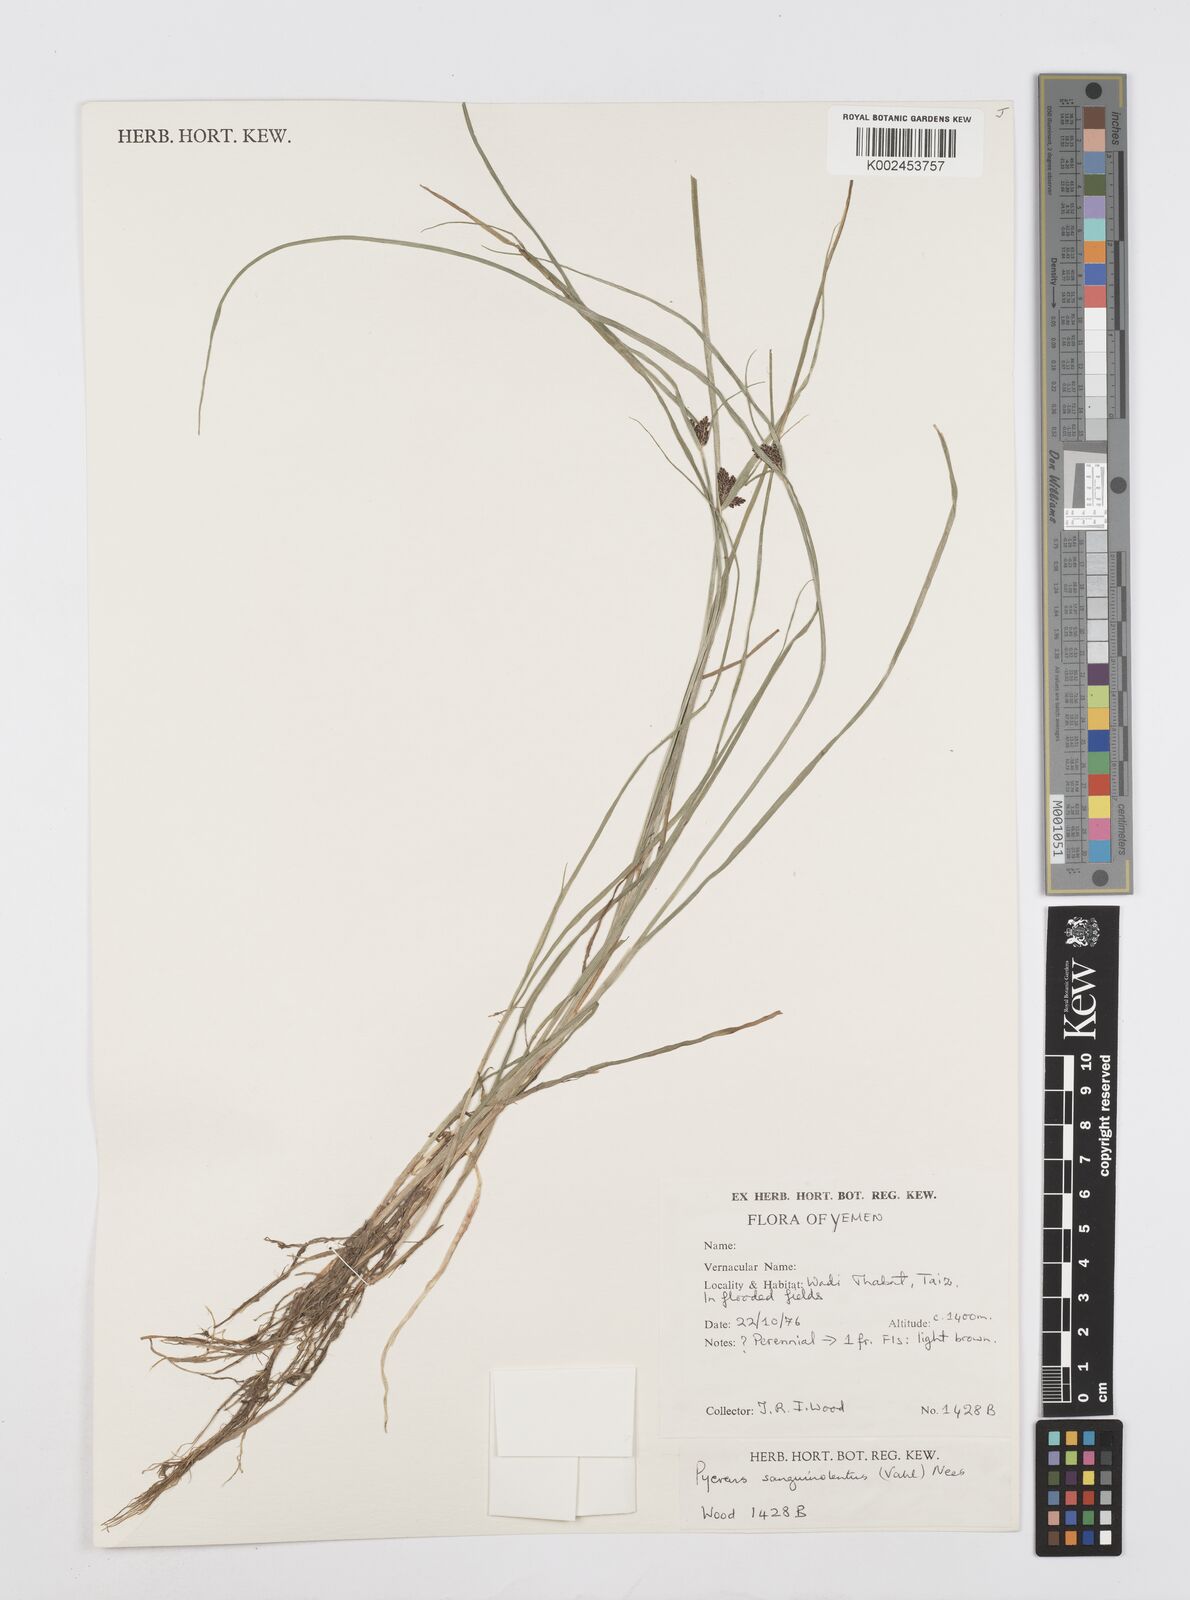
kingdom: Plantae
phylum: Tracheophyta
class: Liliopsida
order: Poales
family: Cyperaceae
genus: Cyperus
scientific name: Cyperus sanguinolentus
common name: Purpleglume flatsedge
